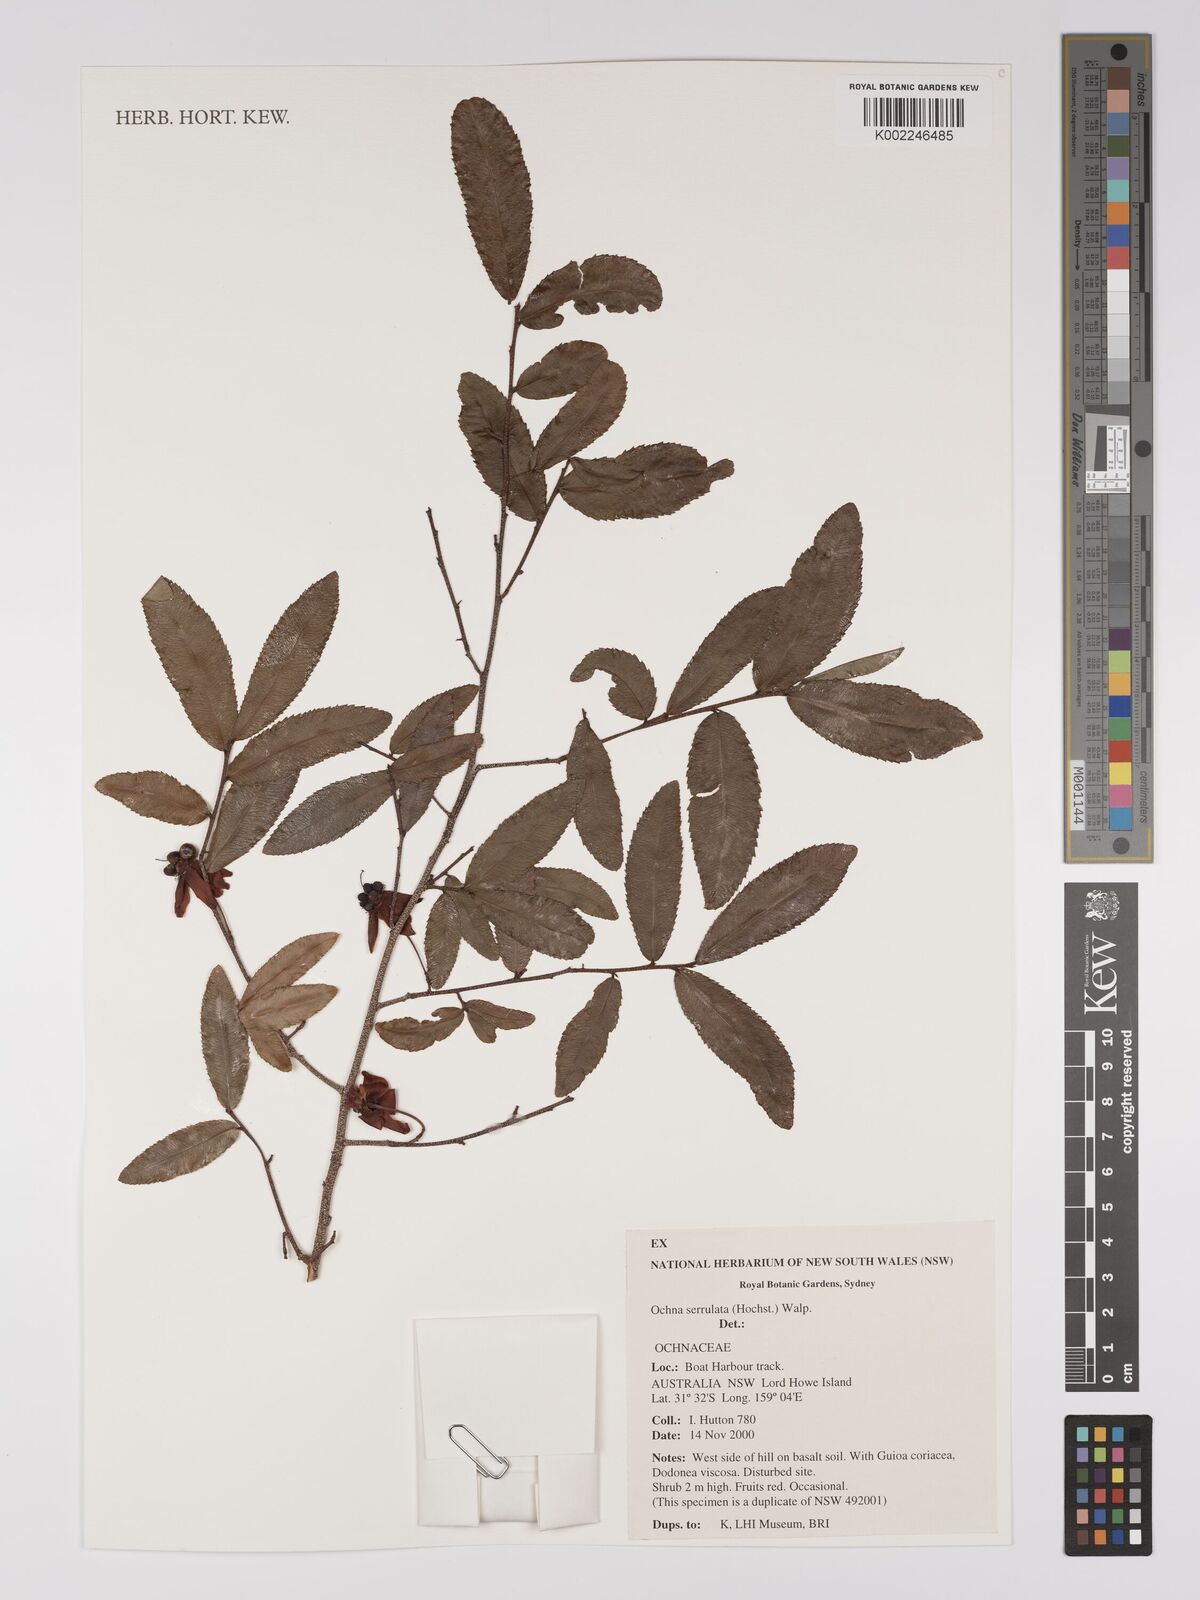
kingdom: Plantae
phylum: Tracheophyta
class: Magnoliopsida
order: Malpighiales
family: Ochnaceae
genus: Ochna
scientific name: Ochna atropurpurea
